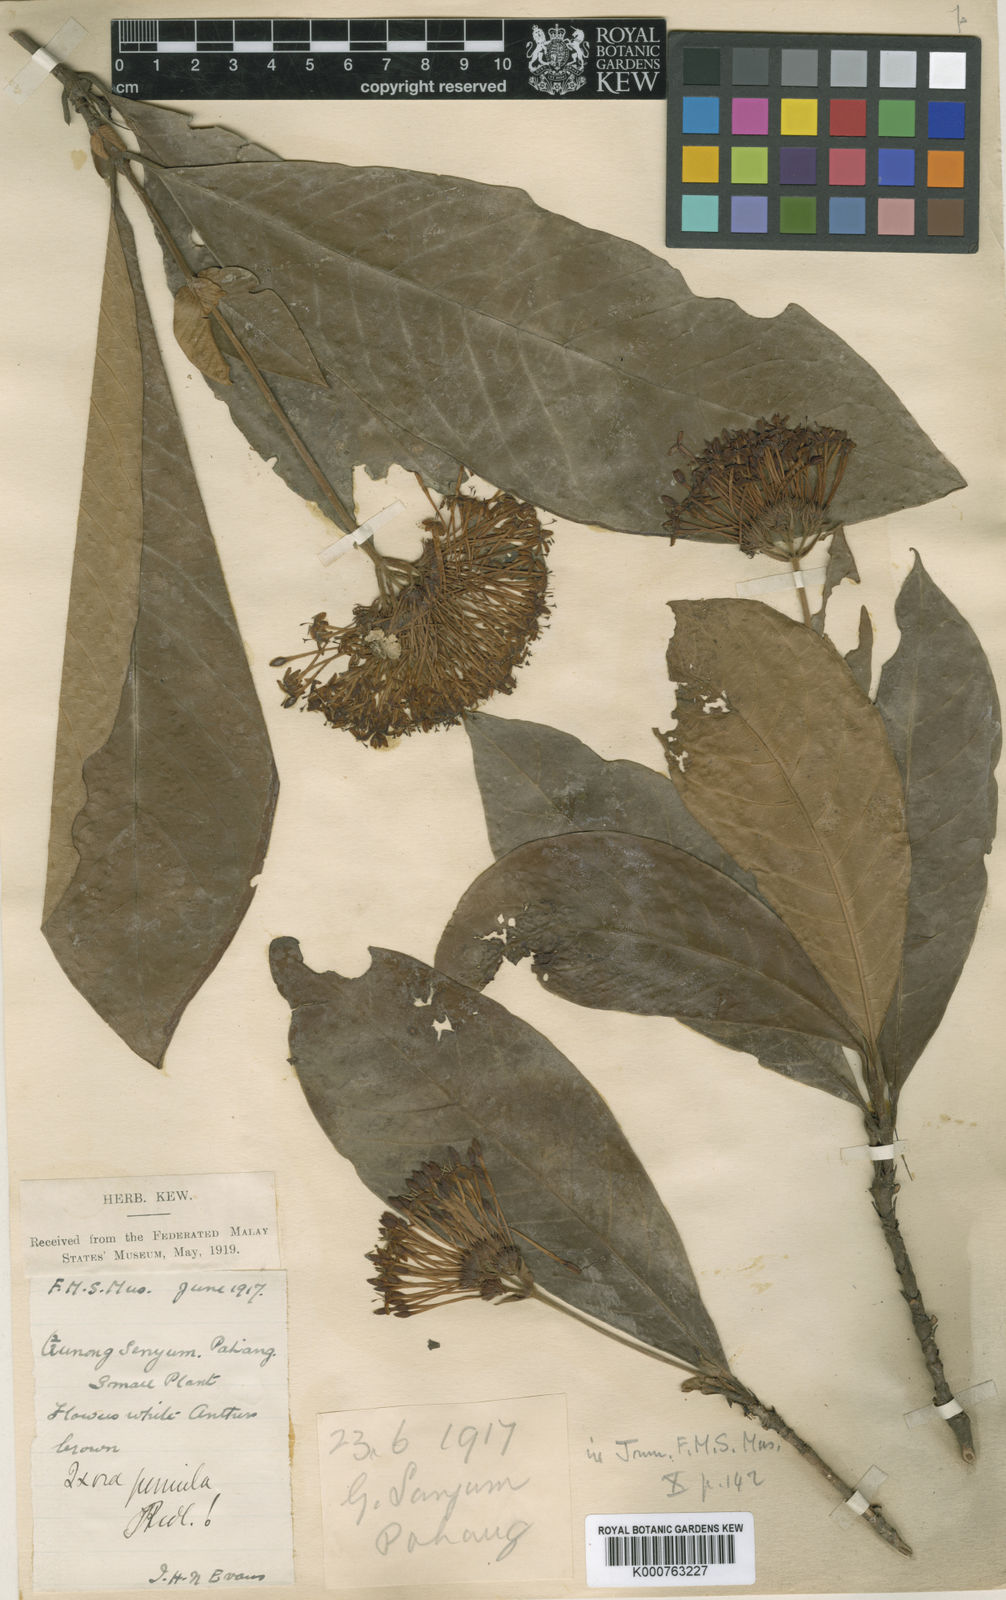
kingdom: Plantae
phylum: Tracheophyta
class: Magnoliopsida
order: Gentianales
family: Rubiaceae
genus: Ixora
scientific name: Ixora clerodendron
